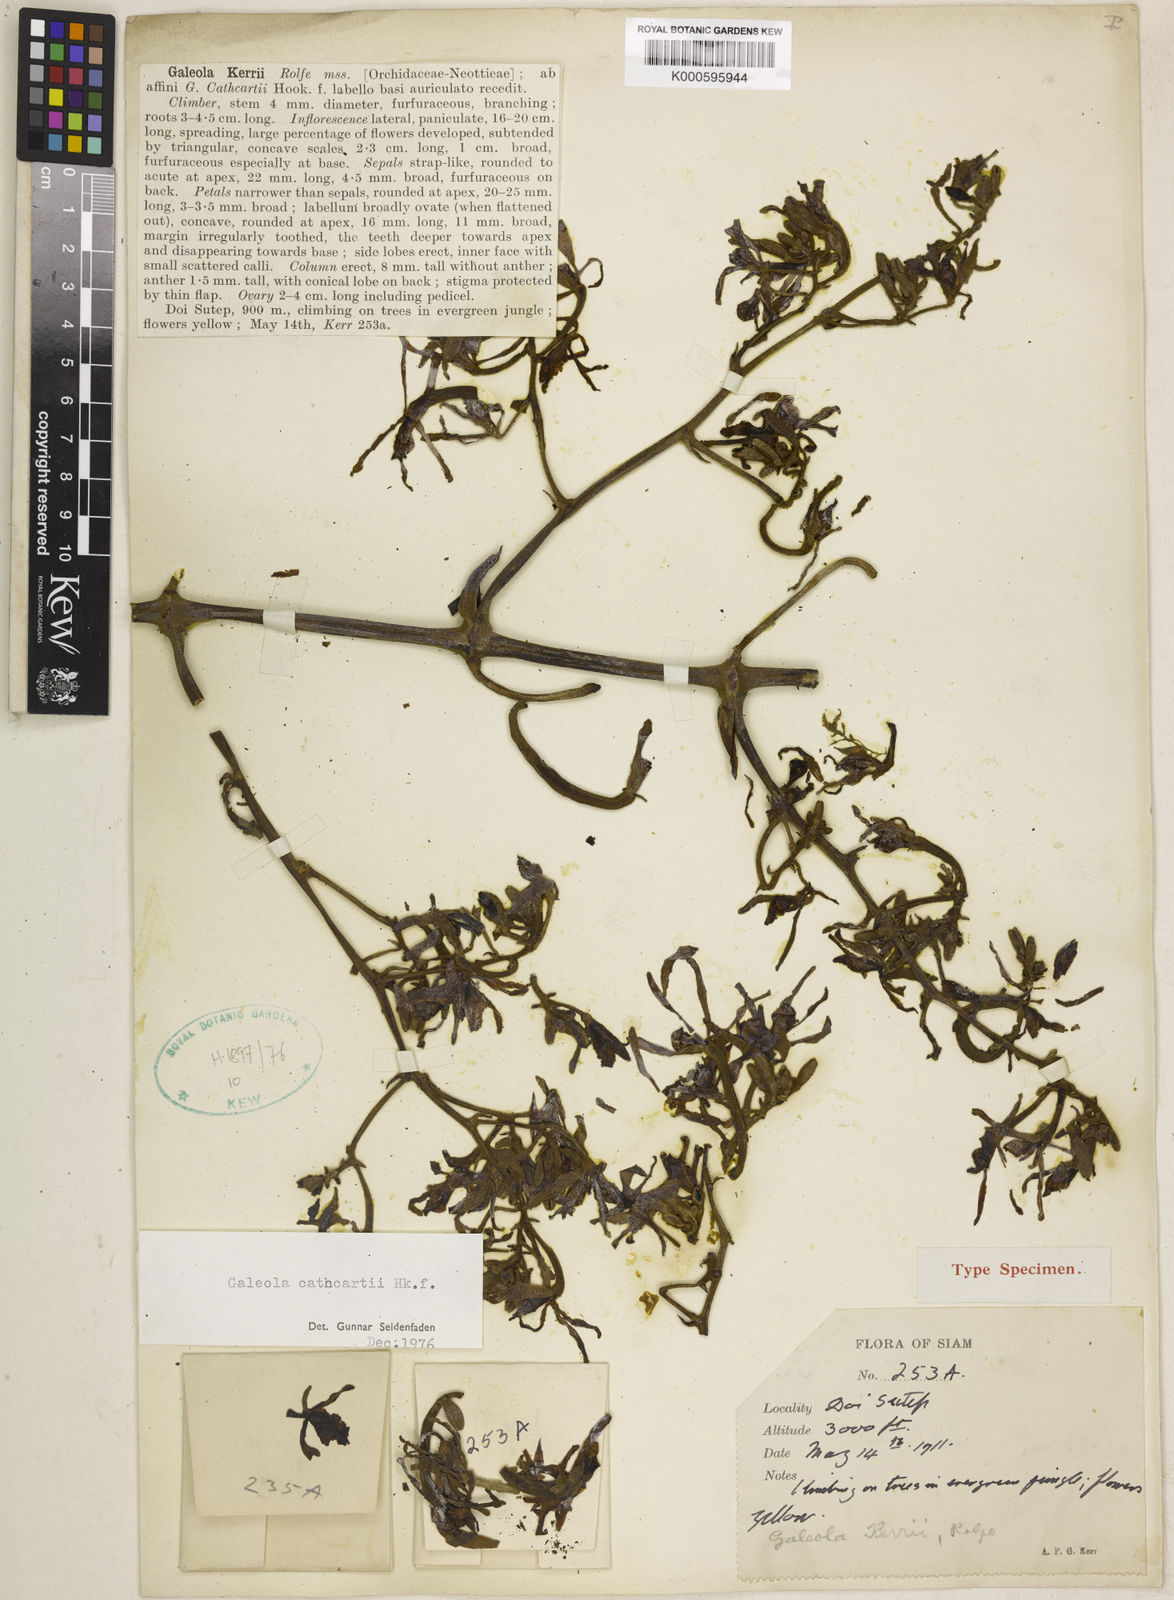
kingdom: Plantae
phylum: Tracheophyta
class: Liliopsida
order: Asparagales
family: Orchidaceae
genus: Galeola
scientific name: Galeola cathcartii
